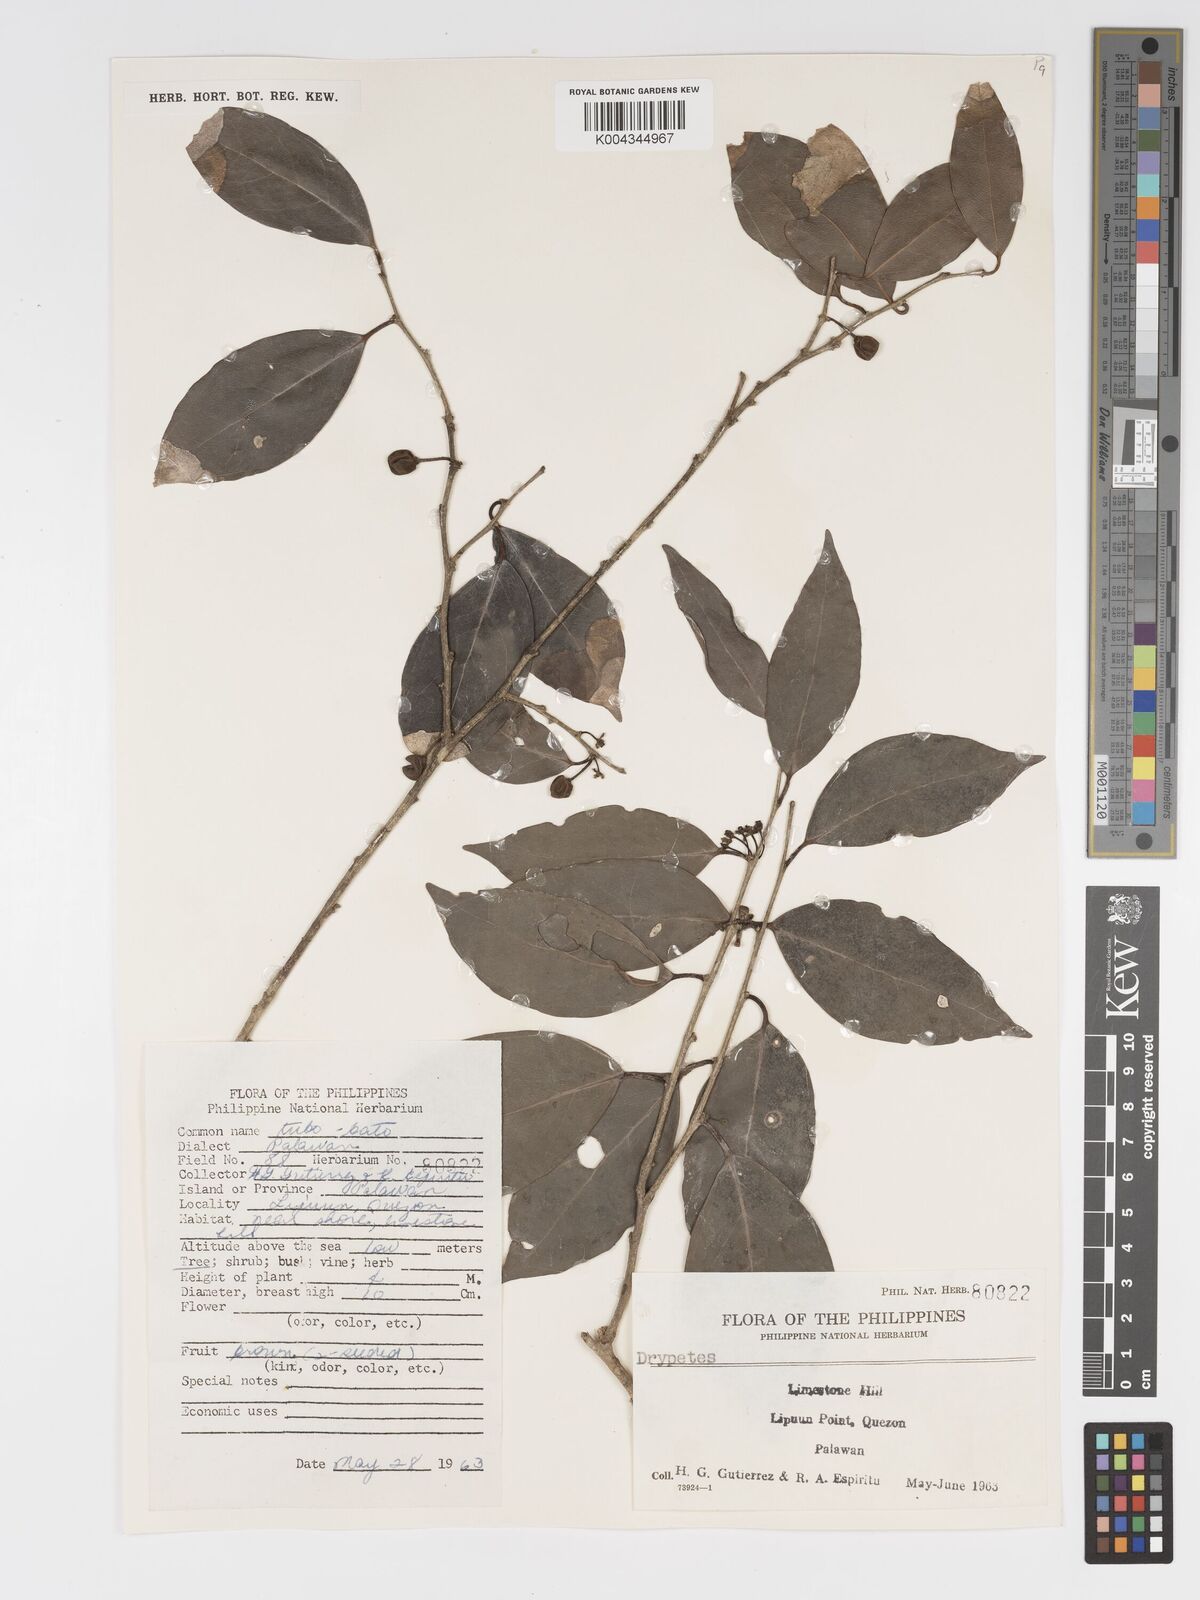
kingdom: Plantae
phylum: Tracheophyta
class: Magnoliopsida
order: Malpighiales
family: Putranjivaceae
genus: Drypetes
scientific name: Drypetes littoralis
